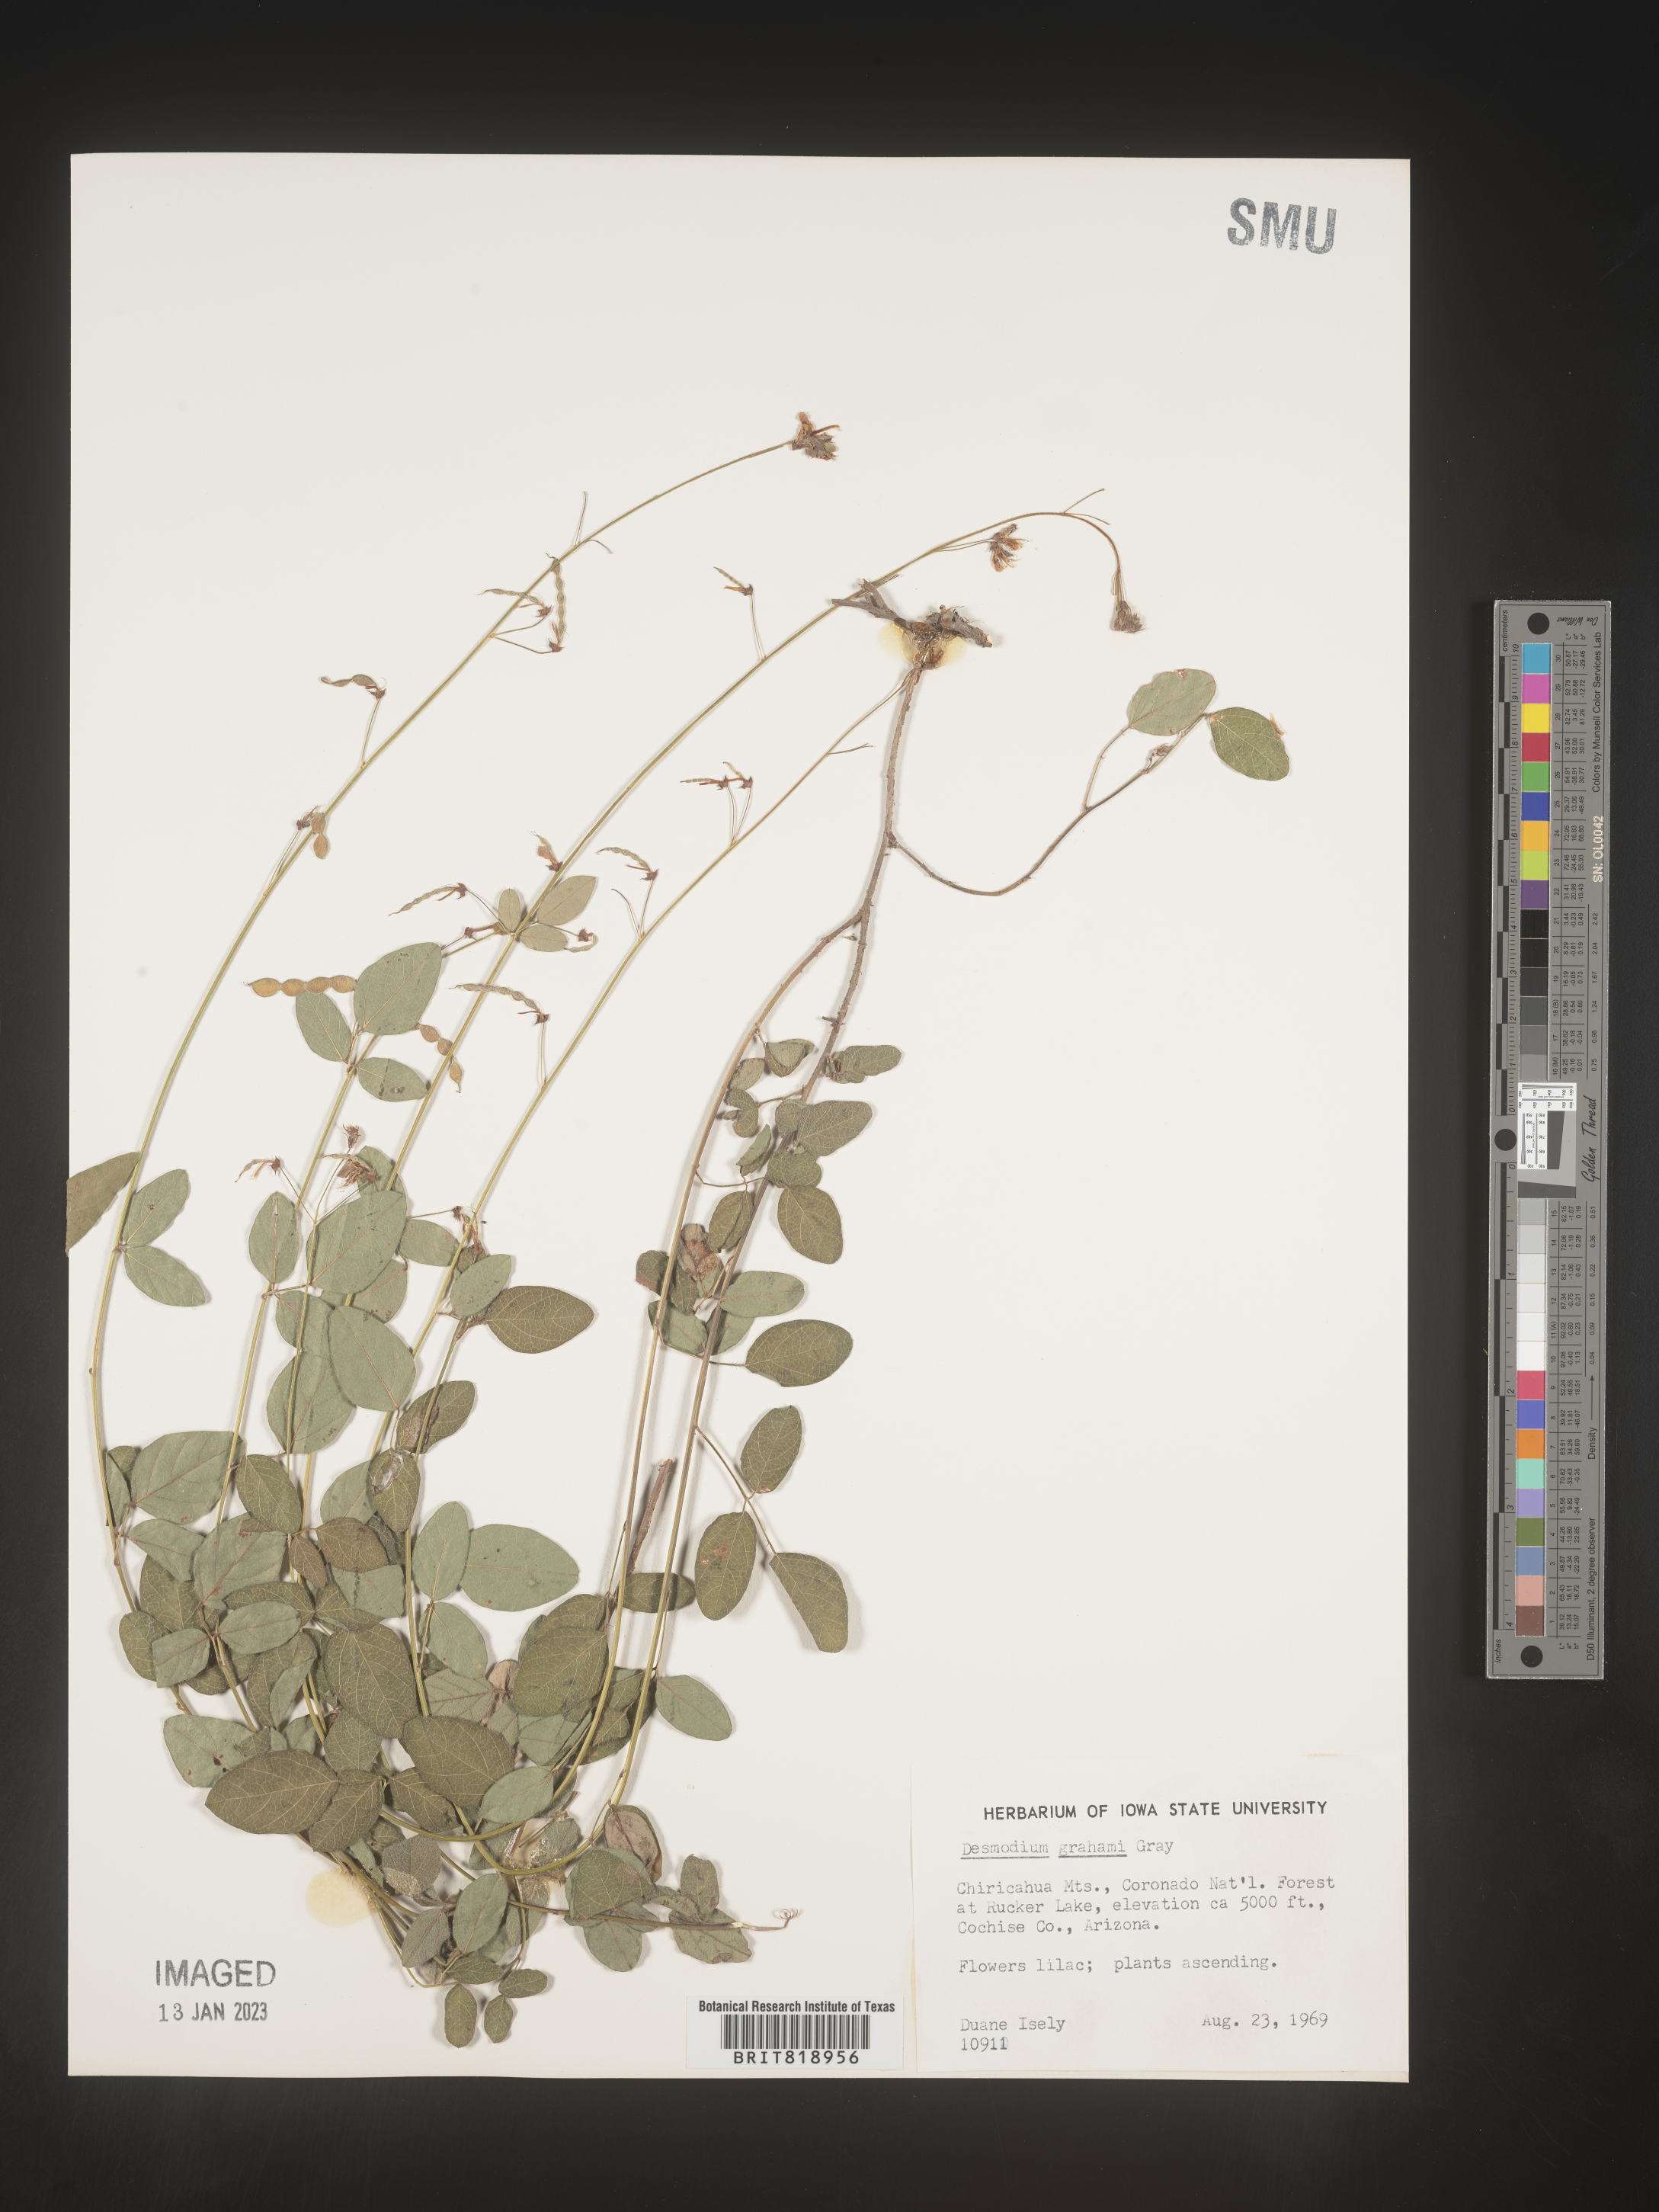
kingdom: Plantae
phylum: Tracheophyta
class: Magnoliopsida
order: Fabales
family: Fabaceae
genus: Desmodium
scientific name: Desmodium
